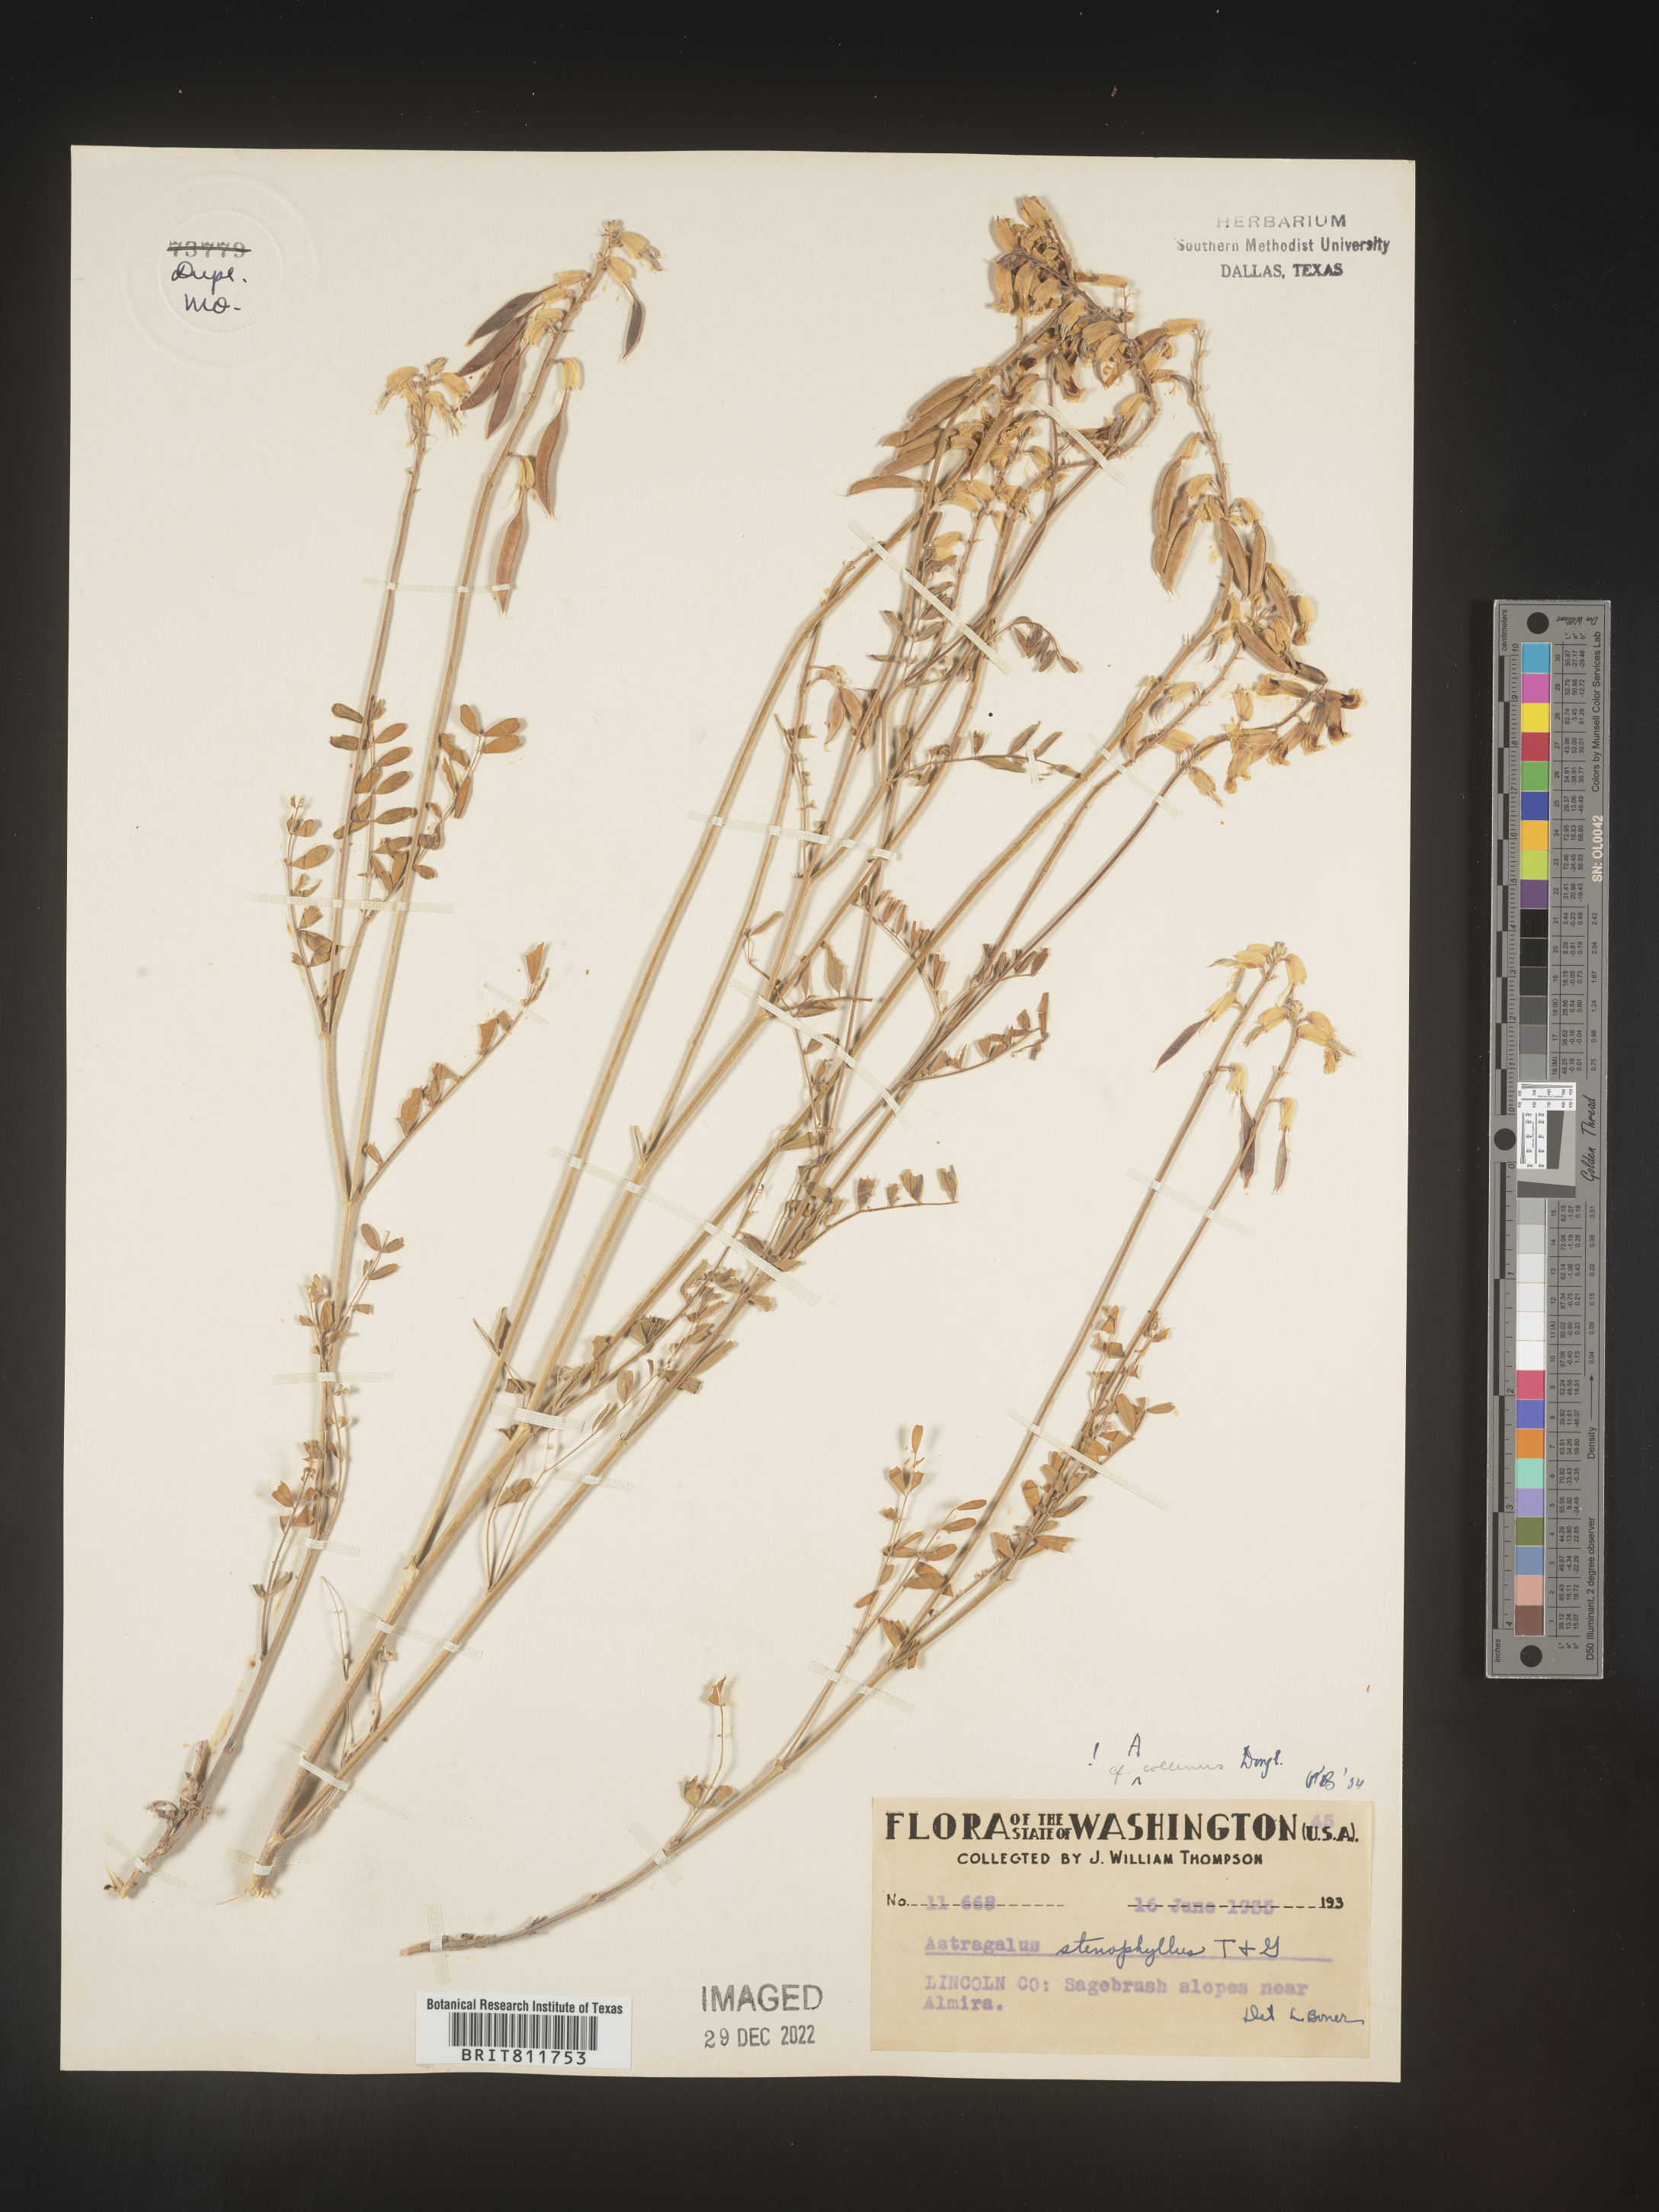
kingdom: Plantae
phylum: Tracheophyta
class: Magnoliopsida
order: Fabales
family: Fabaceae
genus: Astragalus
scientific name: Astragalus
